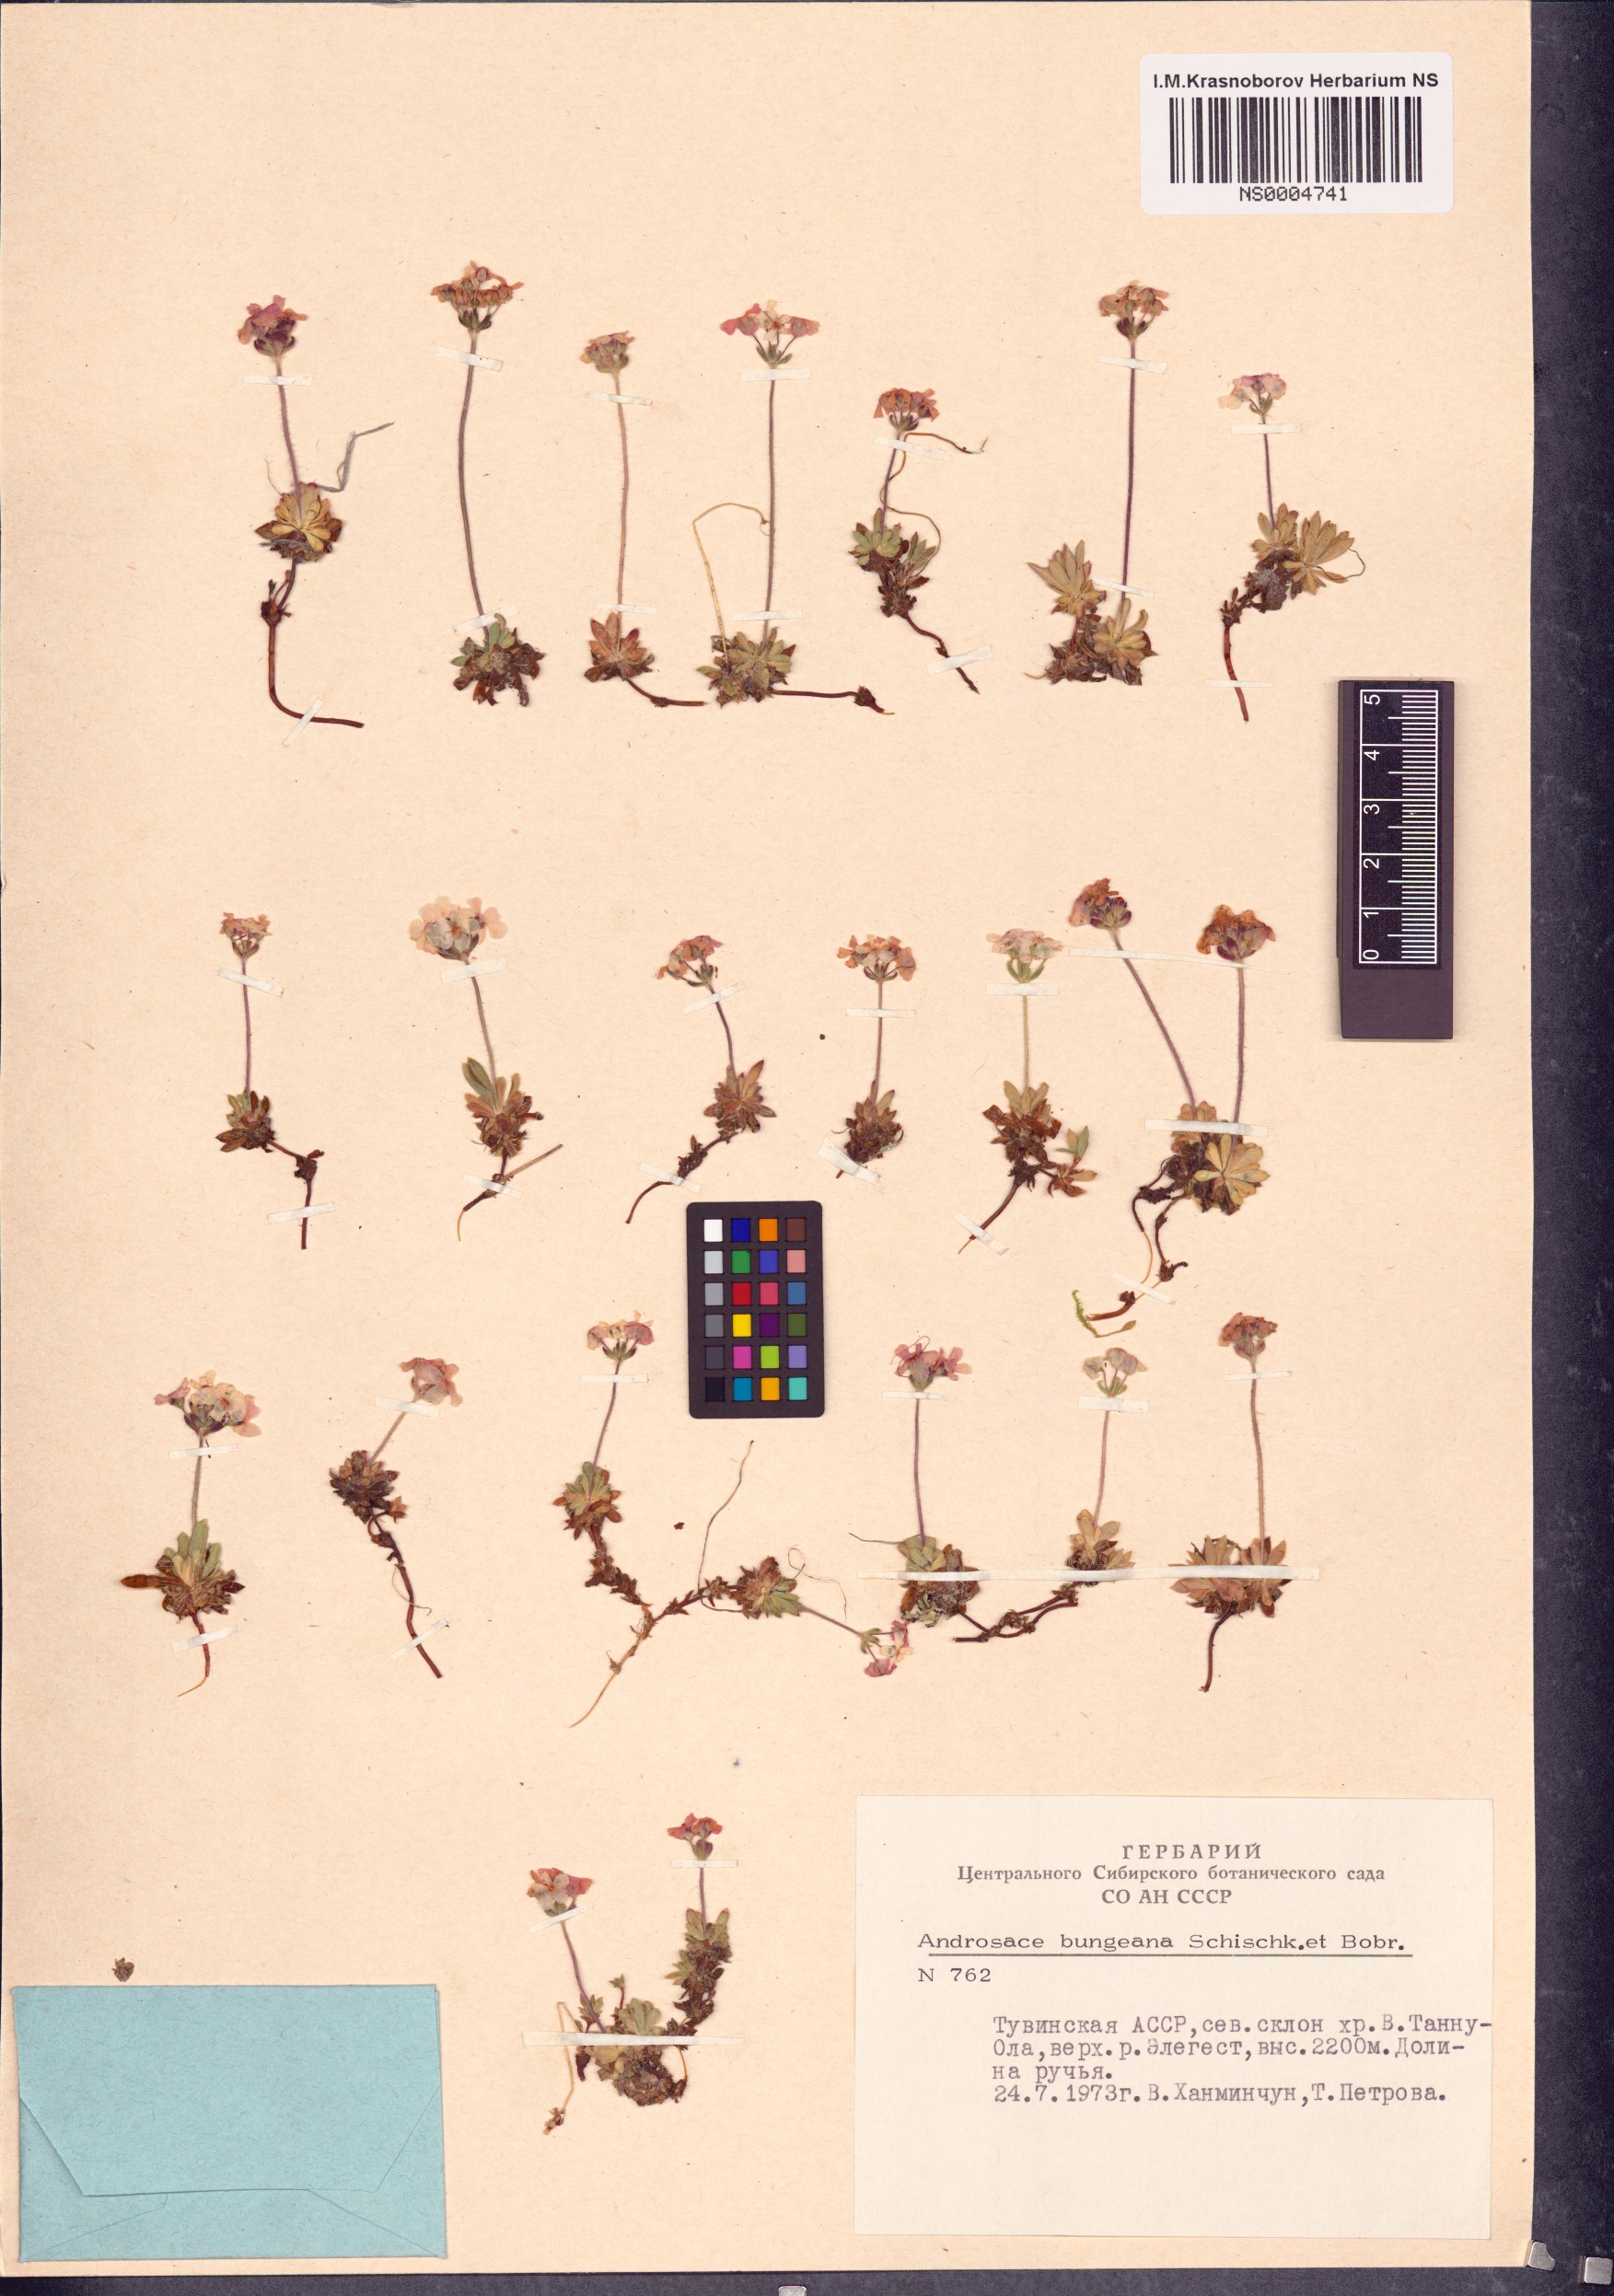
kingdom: Plantae
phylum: Tracheophyta
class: Magnoliopsida
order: Ericales
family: Primulaceae
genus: Androsace
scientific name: Androsace bungeana
